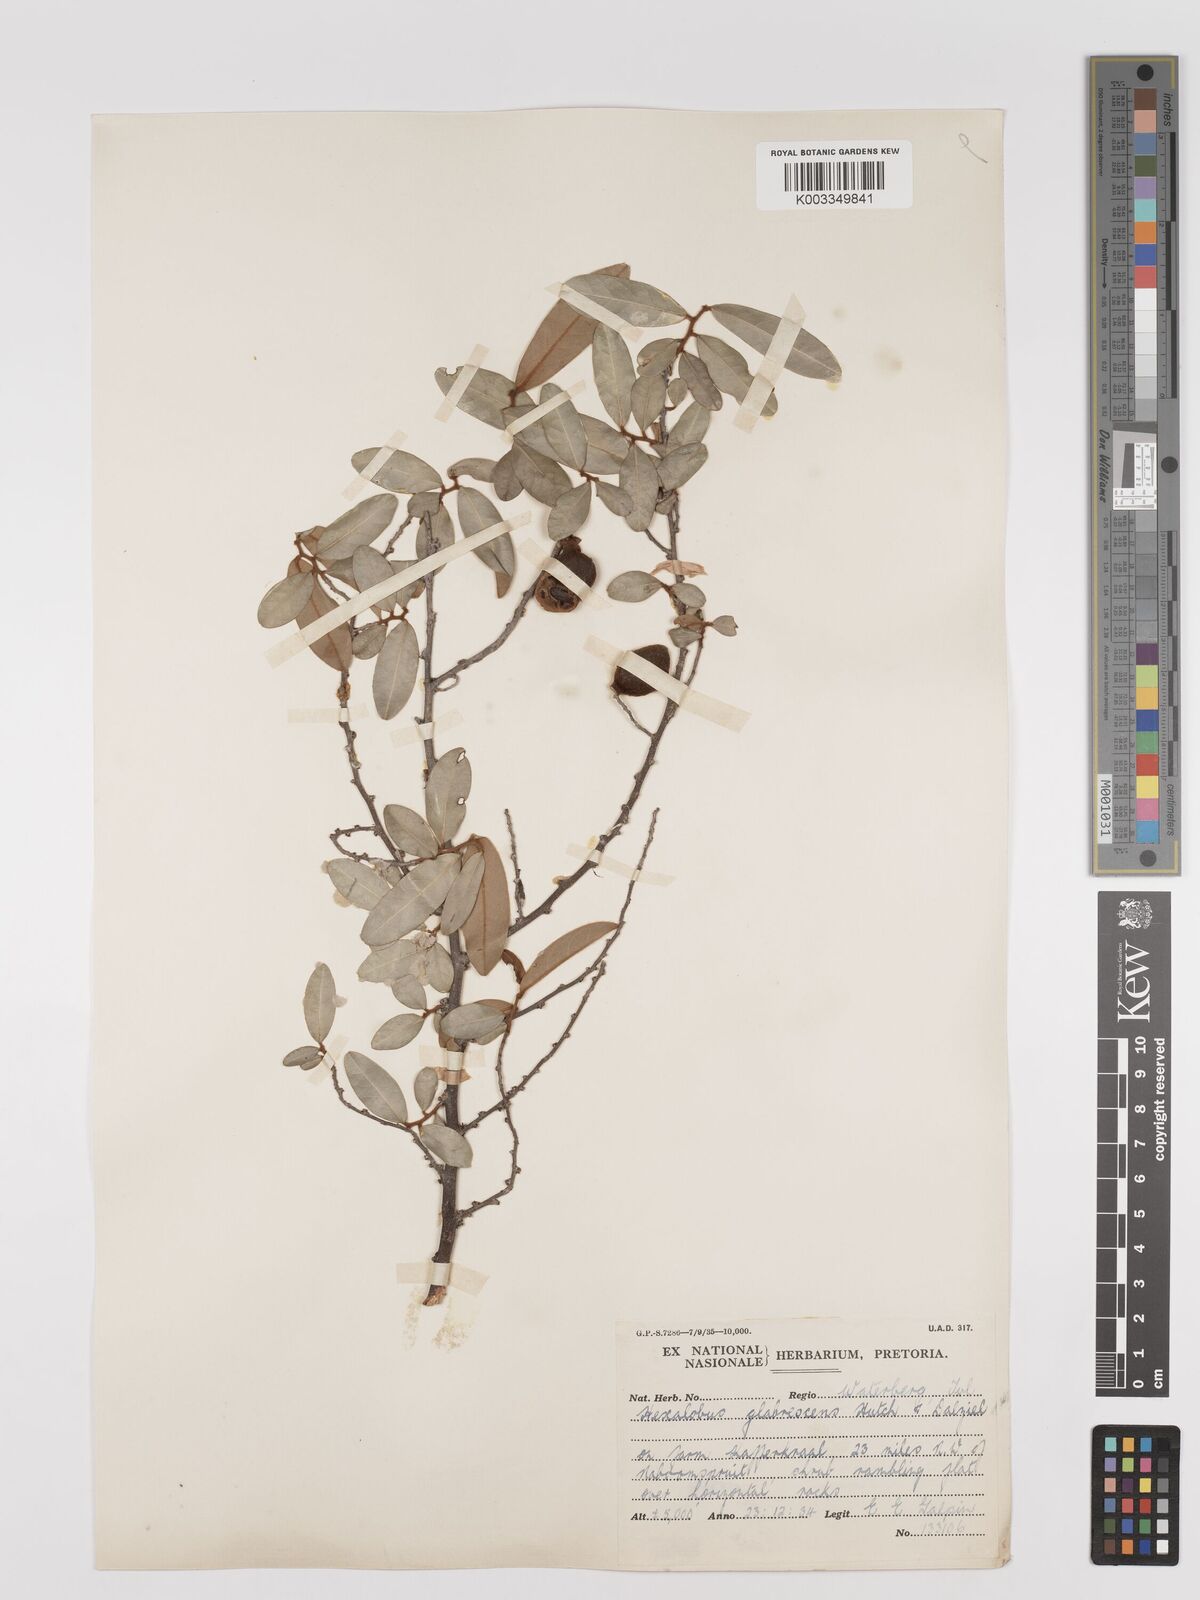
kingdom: Plantae
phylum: Tracheophyta
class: Magnoliopsida
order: Magnoliales
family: Annonaceae
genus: Hexalobus
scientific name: Hexalobus monopetalus
